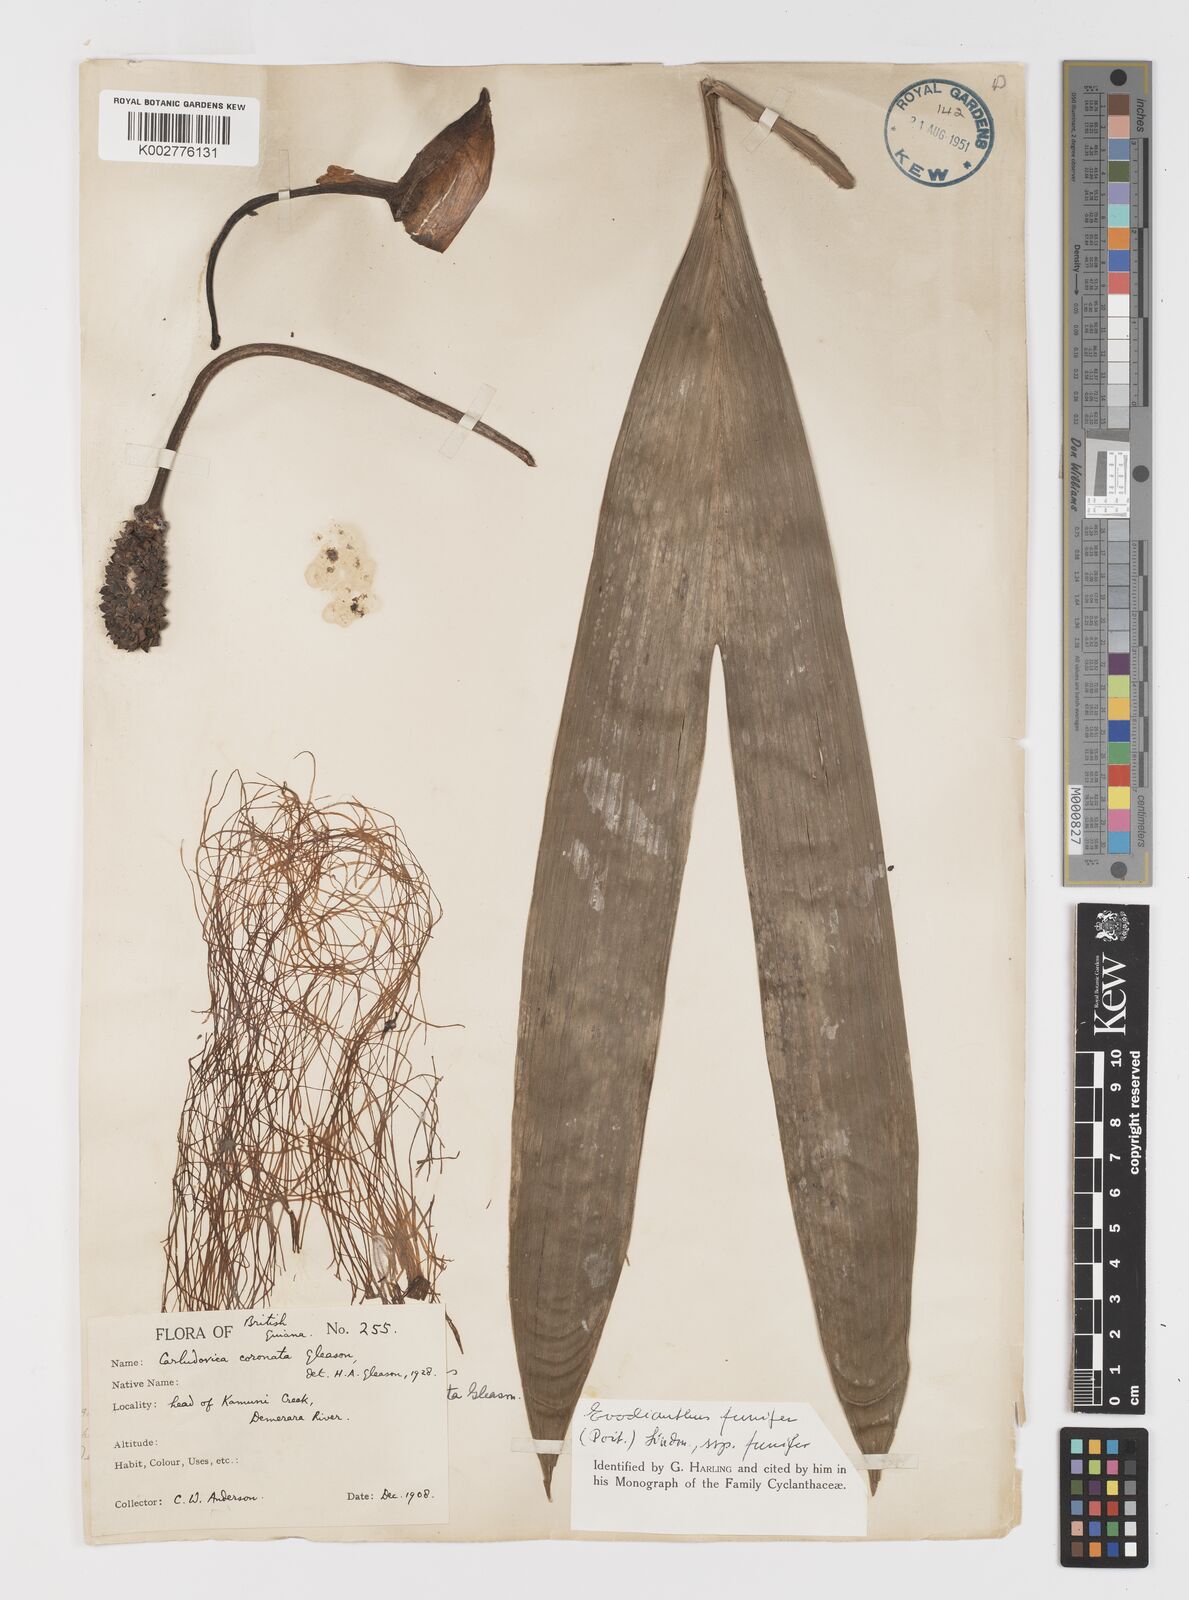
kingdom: Plantae
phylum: Tracheophyta
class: Liliopsida
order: Pandanales
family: Cyclanthaceae
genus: Evodianthus
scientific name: Evodianthus funifer
